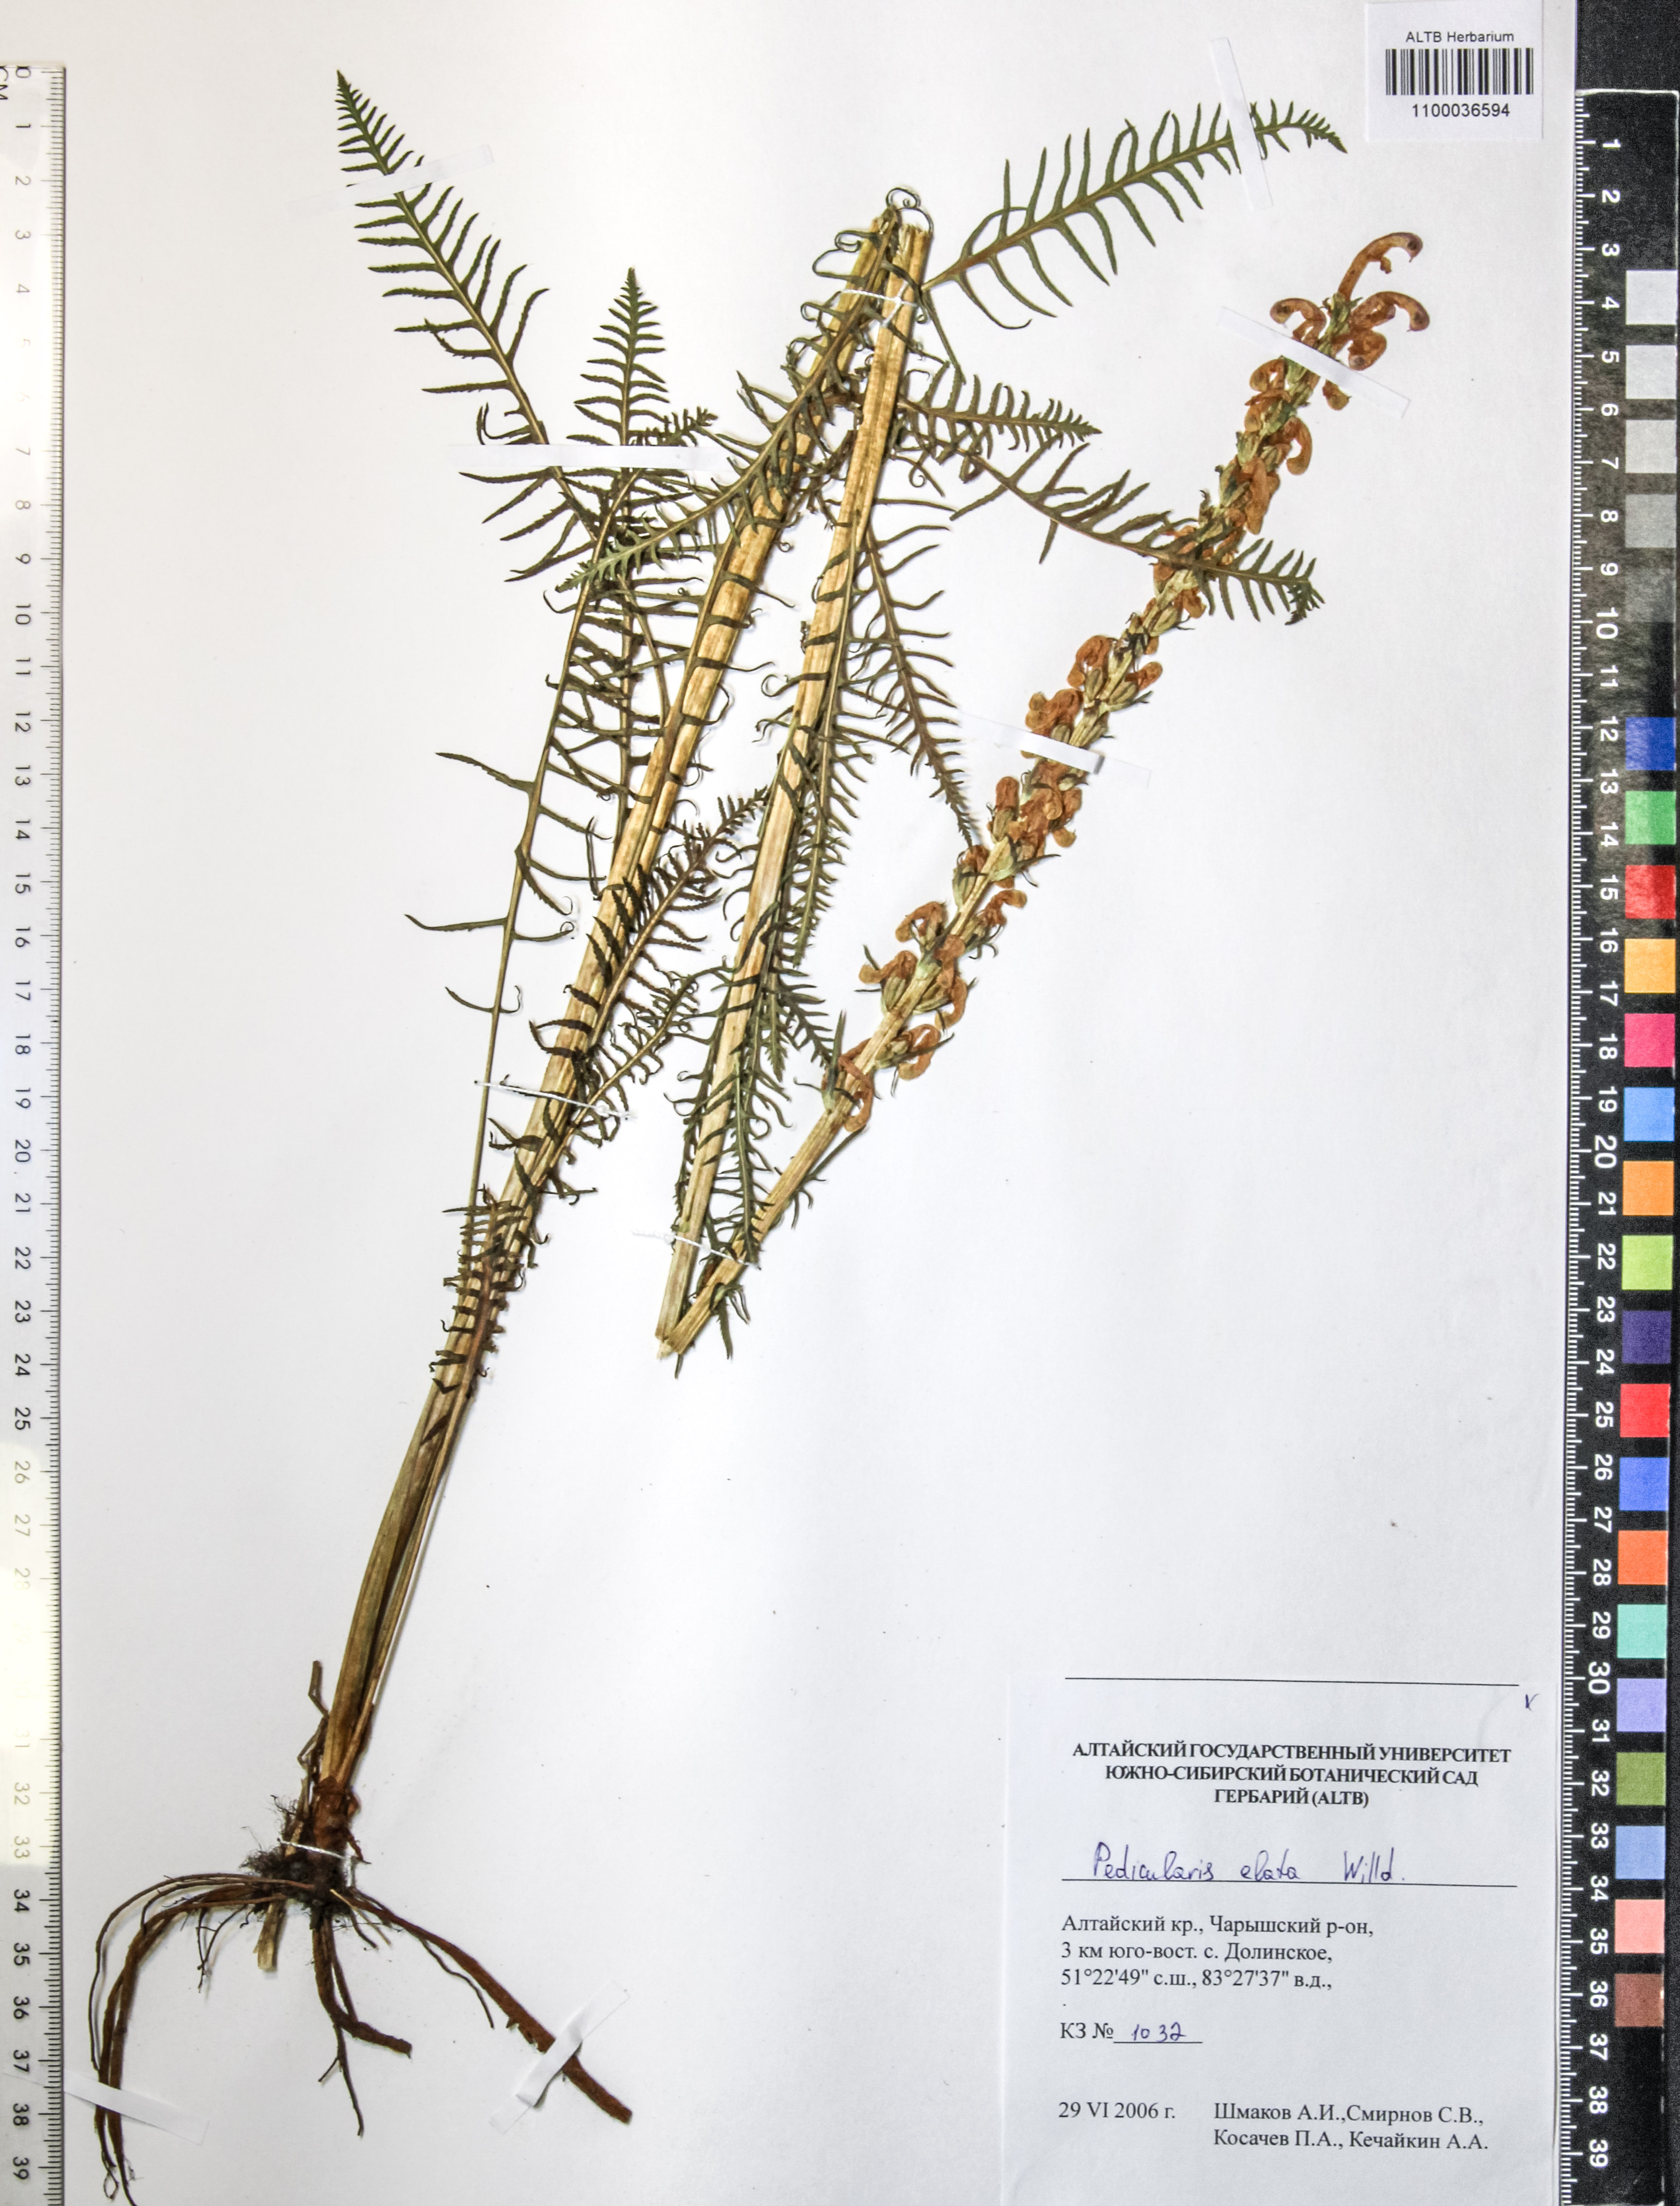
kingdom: Plantae
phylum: Tracheophyta
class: Magnoliopsida
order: Lamiales
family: Orobanchaceae
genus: Pedicularis
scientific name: Pedicularis elata
